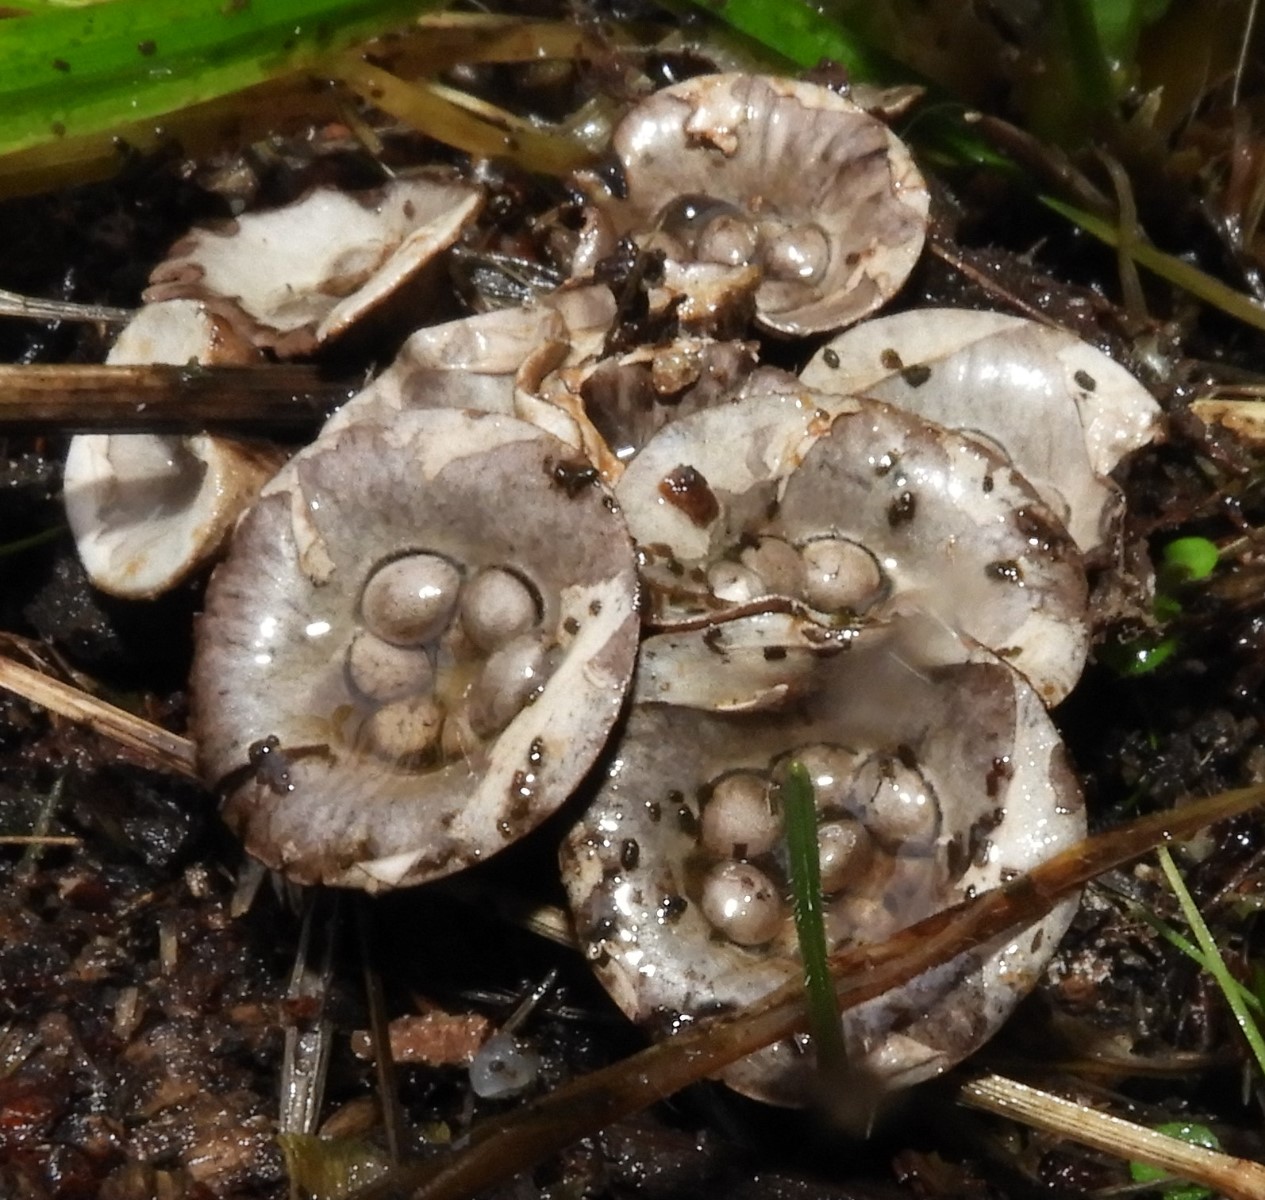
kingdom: Fungi
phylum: Basidiomycota
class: Agaricomycetes
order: Agaricales
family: Agaricaceae
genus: Cyathus
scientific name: Cyathus olla
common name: klokke-redesvamp
